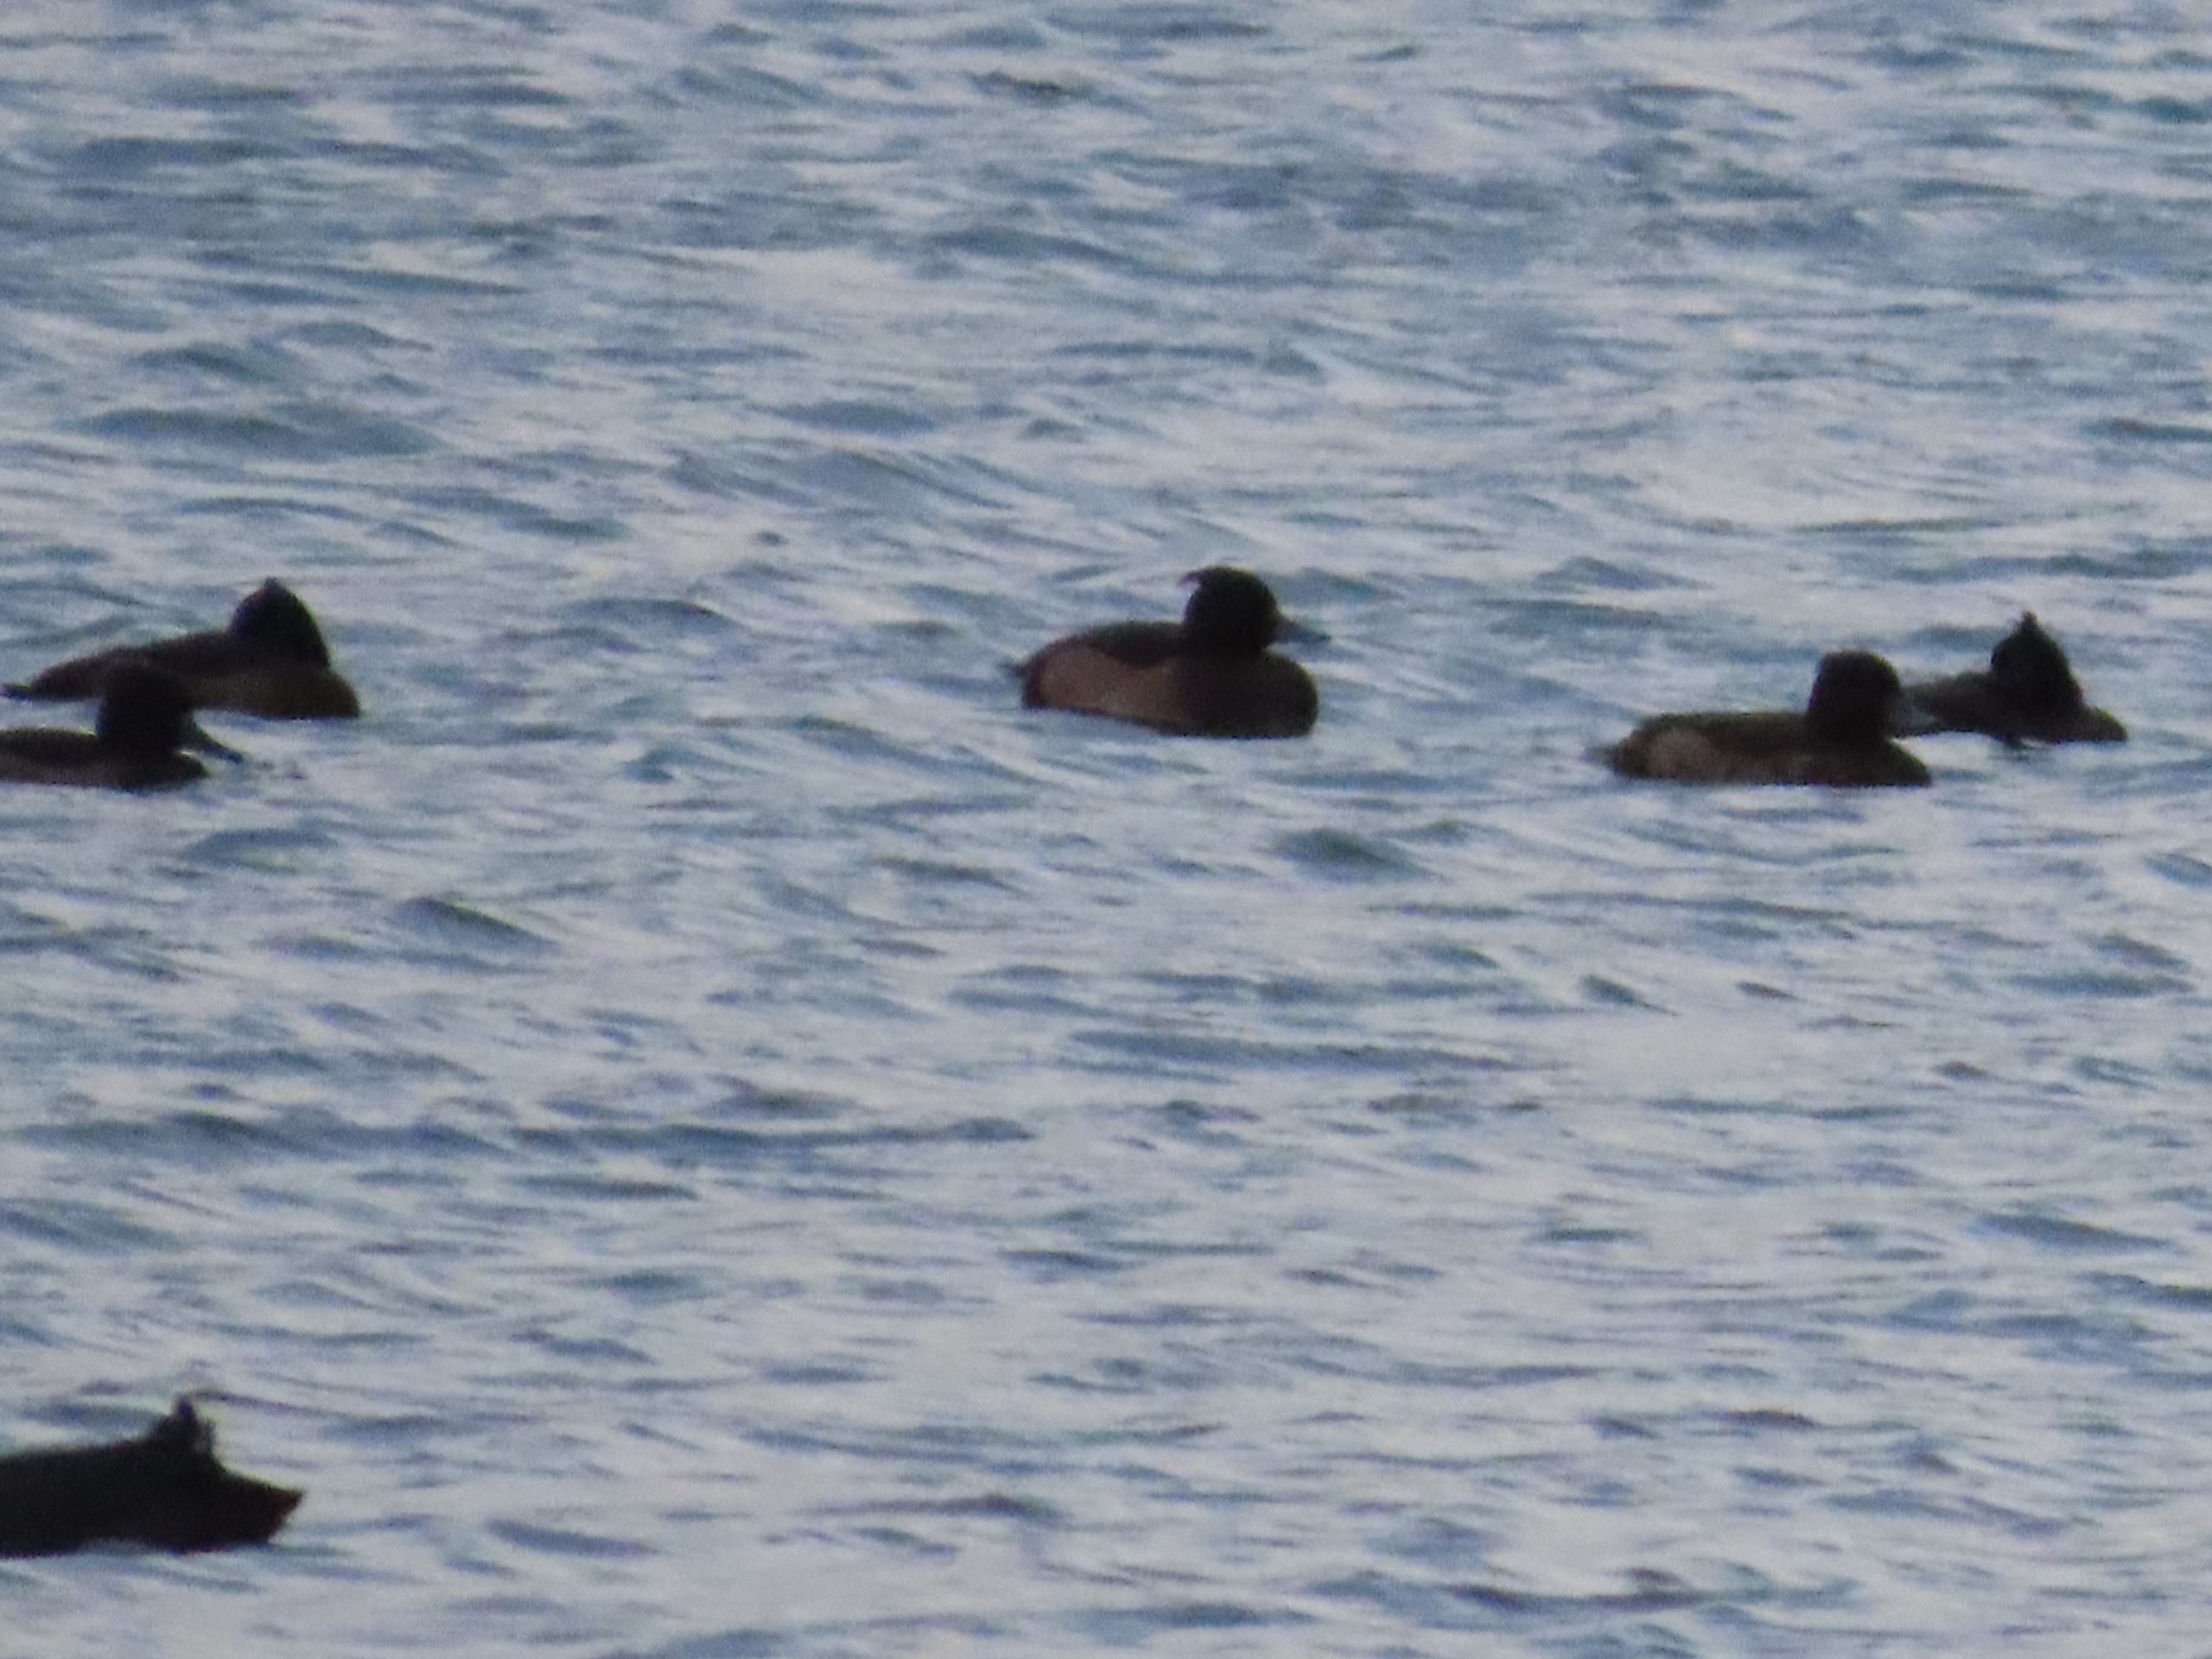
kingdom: Animalia
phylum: Chordata
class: Aves
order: Anseriformes
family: Anatidae
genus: Aythya
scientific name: Aythya fuligula
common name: Troldand
